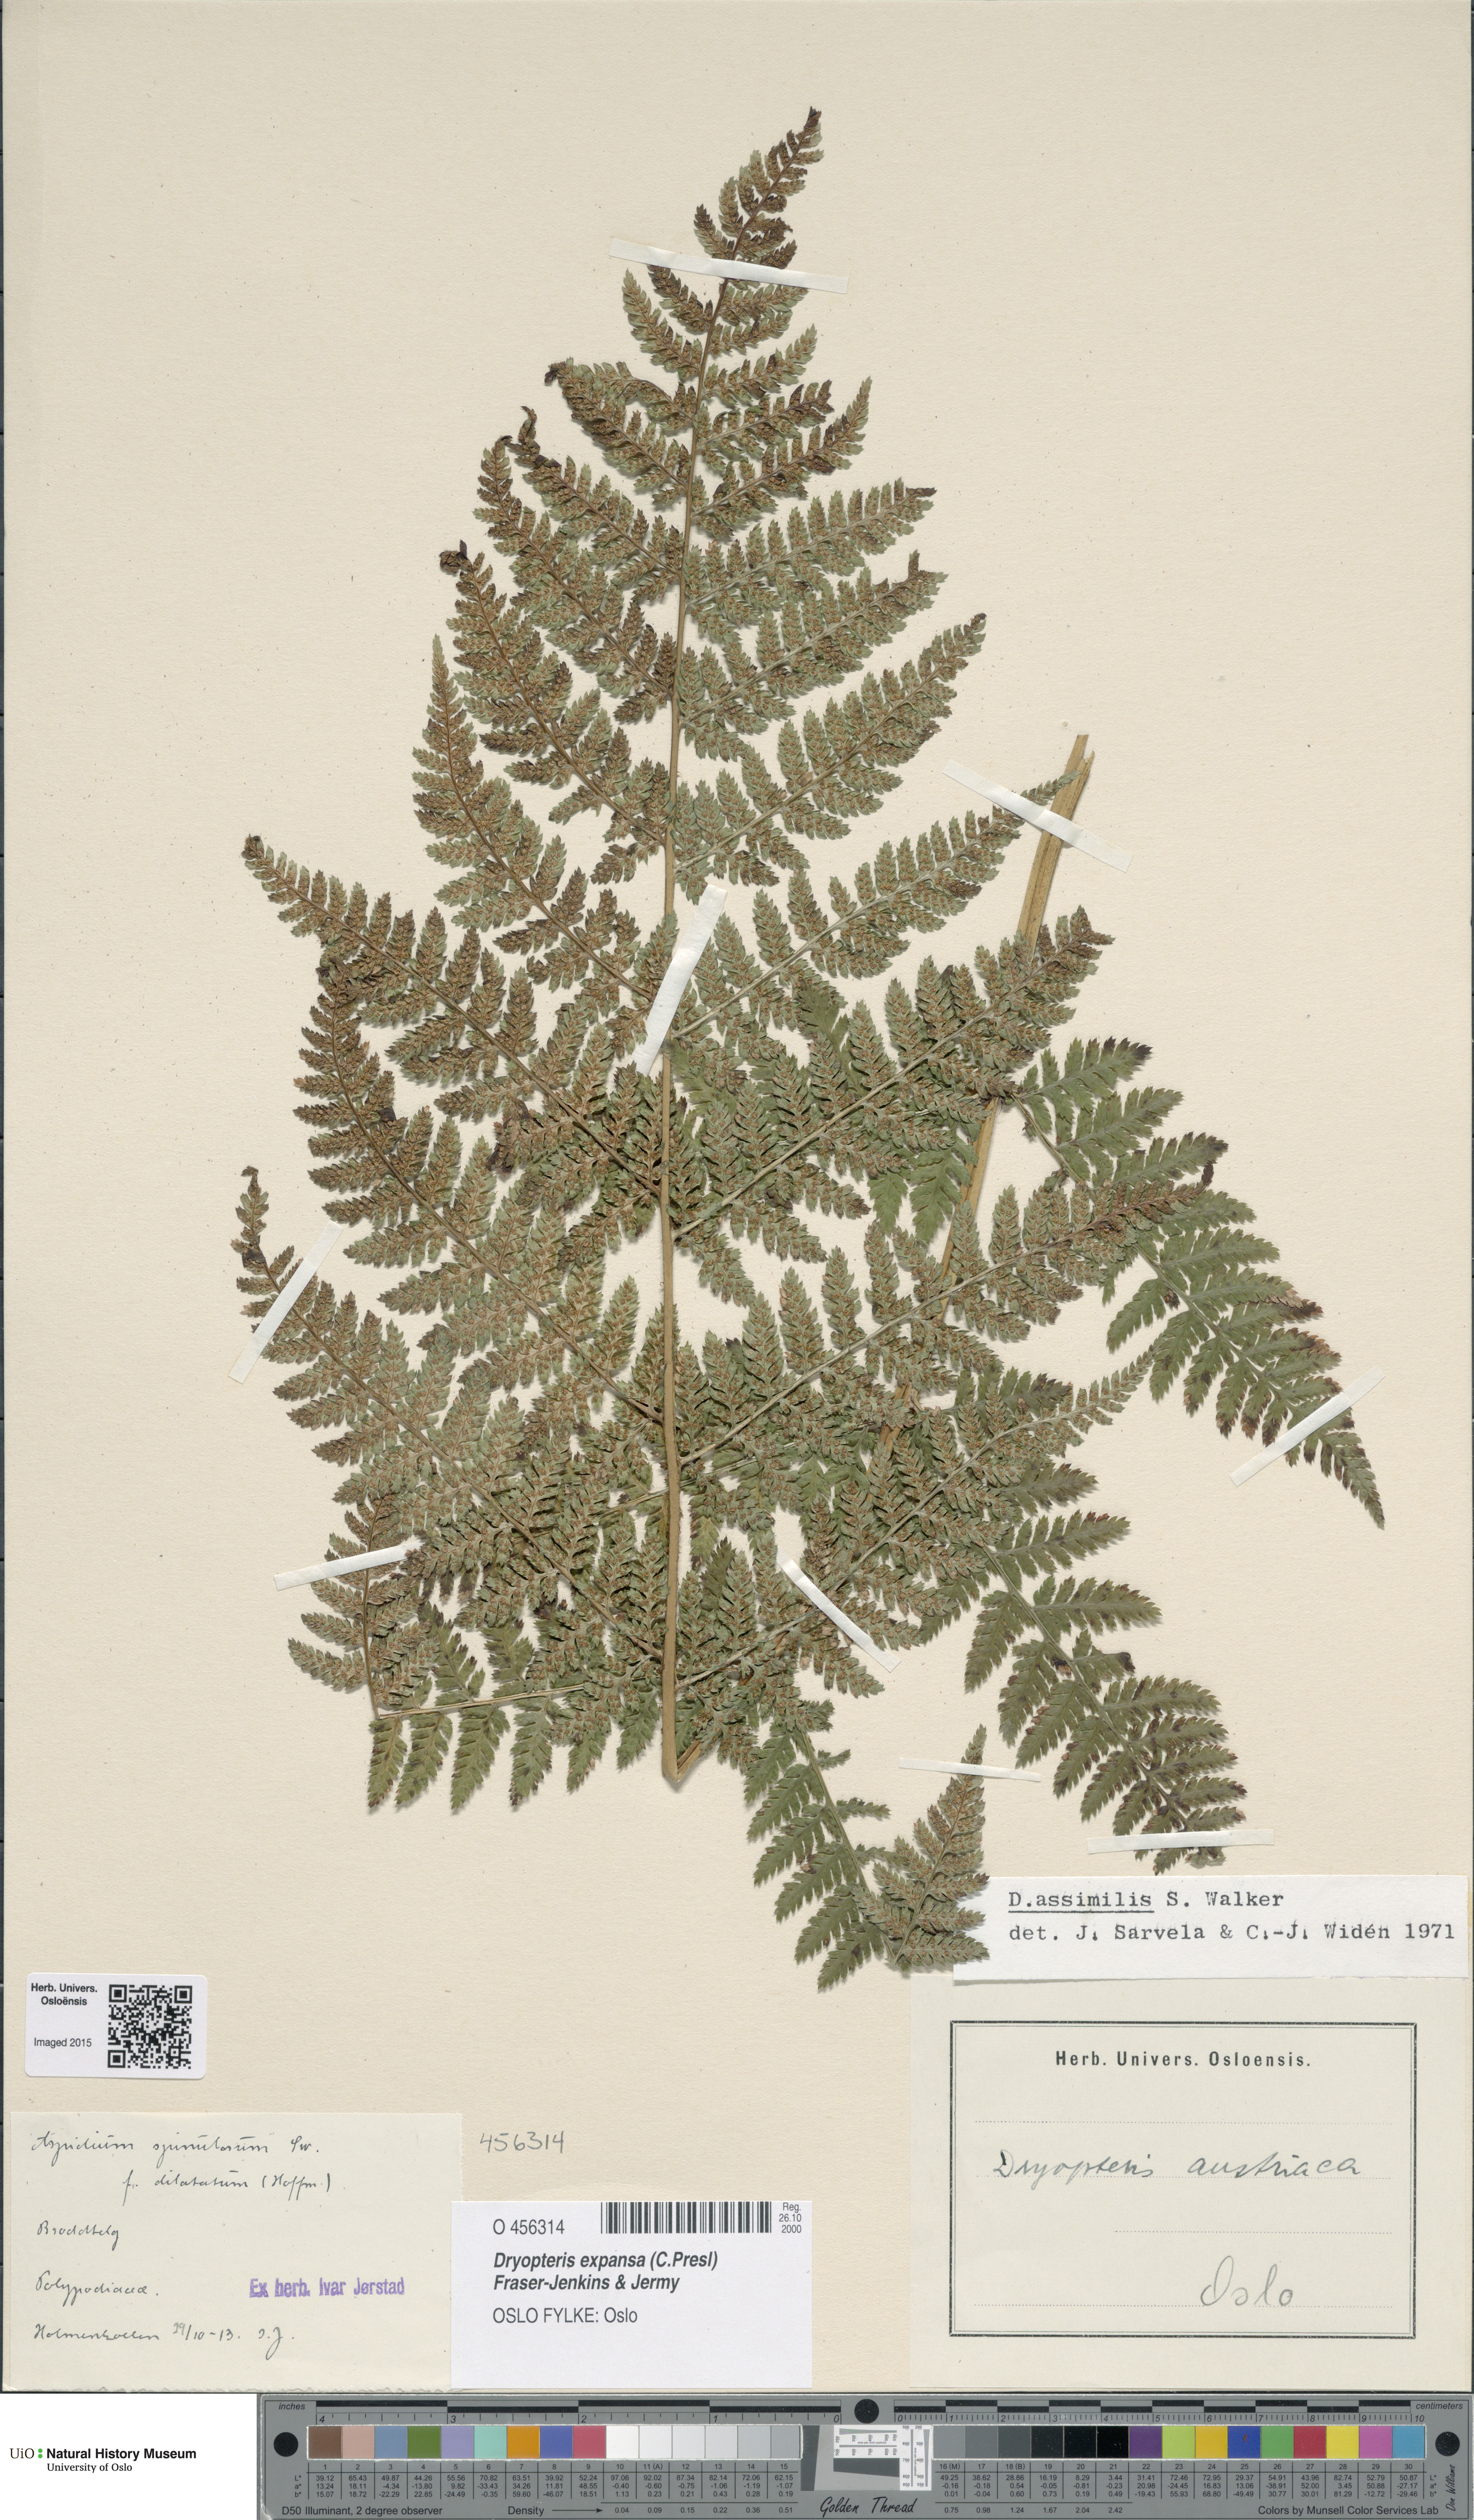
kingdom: Plantae
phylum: Tracheophyta
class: Polypodiopsida
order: Polypodiales
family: Dryopteridaceae
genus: Dryopteris
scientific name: Dryopteris expansa
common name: Northern buckler fern
